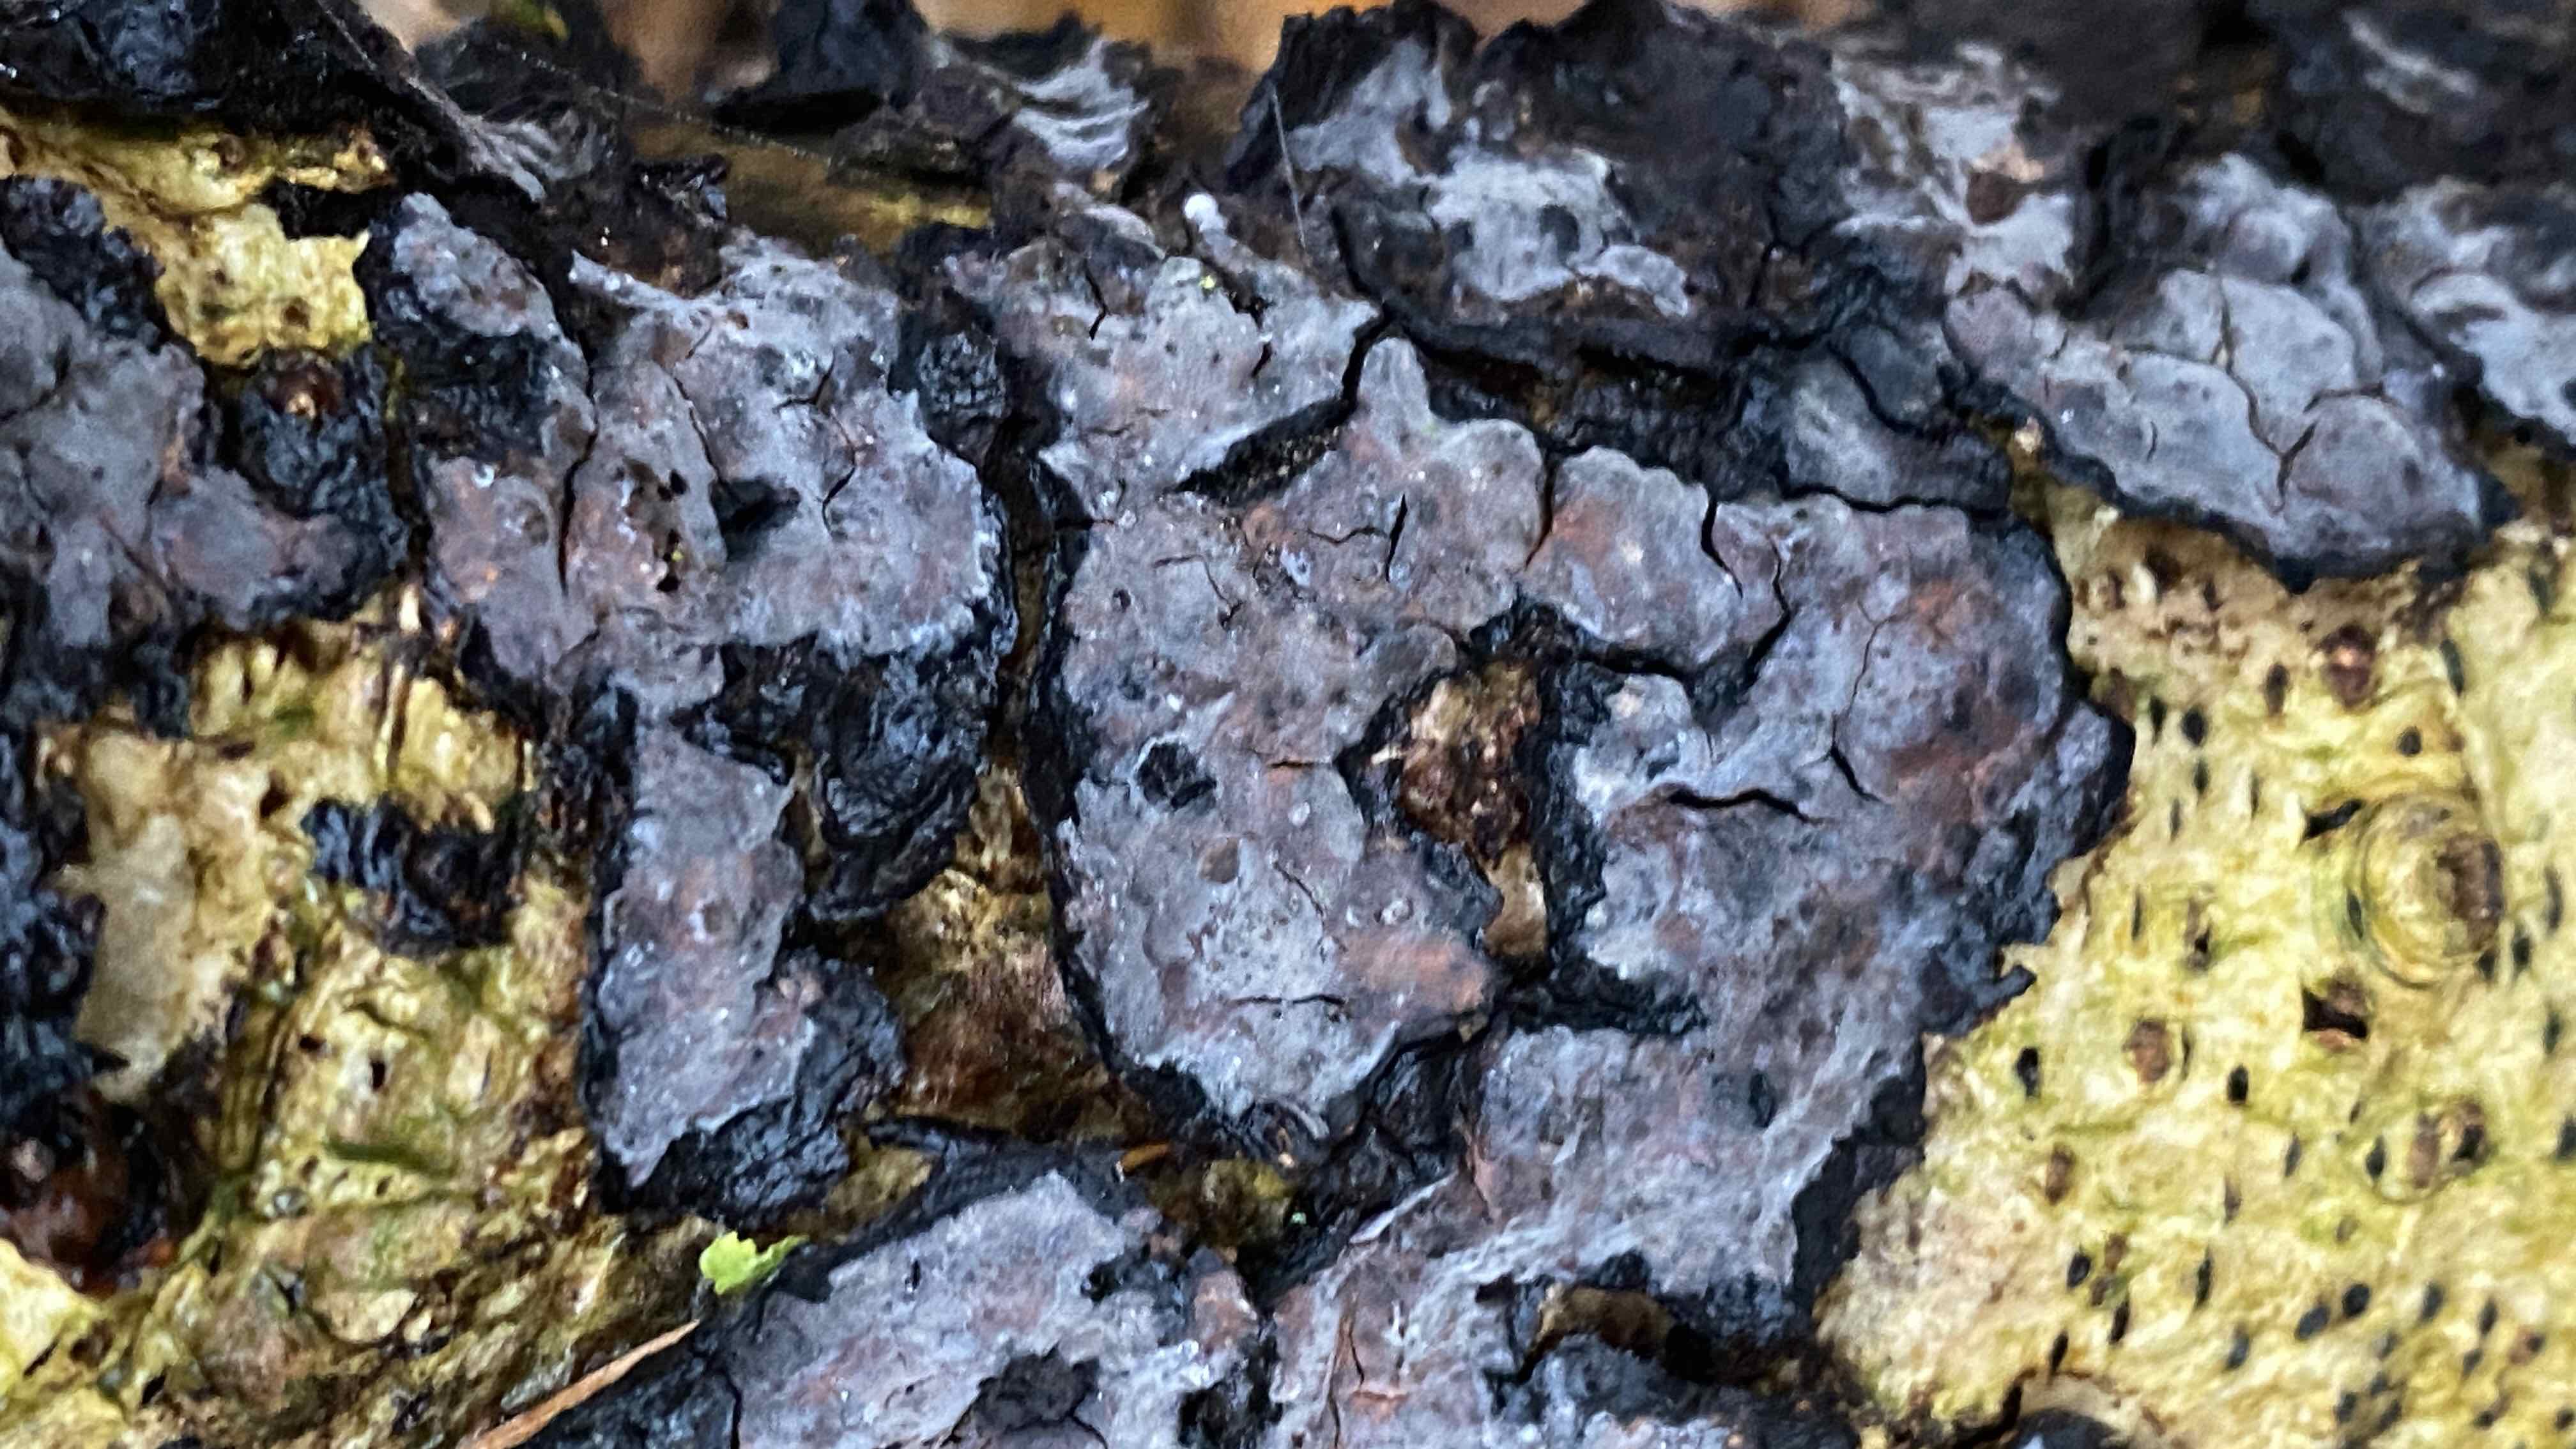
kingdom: Fungi
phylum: Basidiomycota
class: Agaricomycetes
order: Russulales
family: Peniophoraceae
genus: Peniophora
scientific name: Peniophora limitata
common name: mørkrandet voksskind
